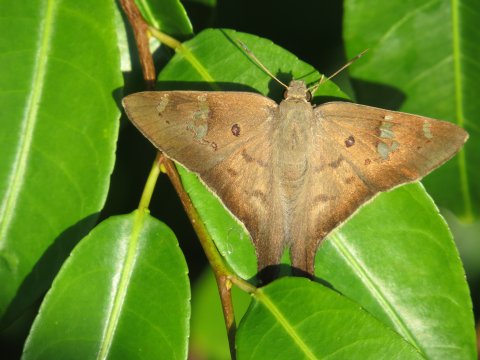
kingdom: Animalia
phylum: Arthropoda
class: Insecta
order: Lepidoptera
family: Hesperiidae
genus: Polythrix
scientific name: Polythrix asine
